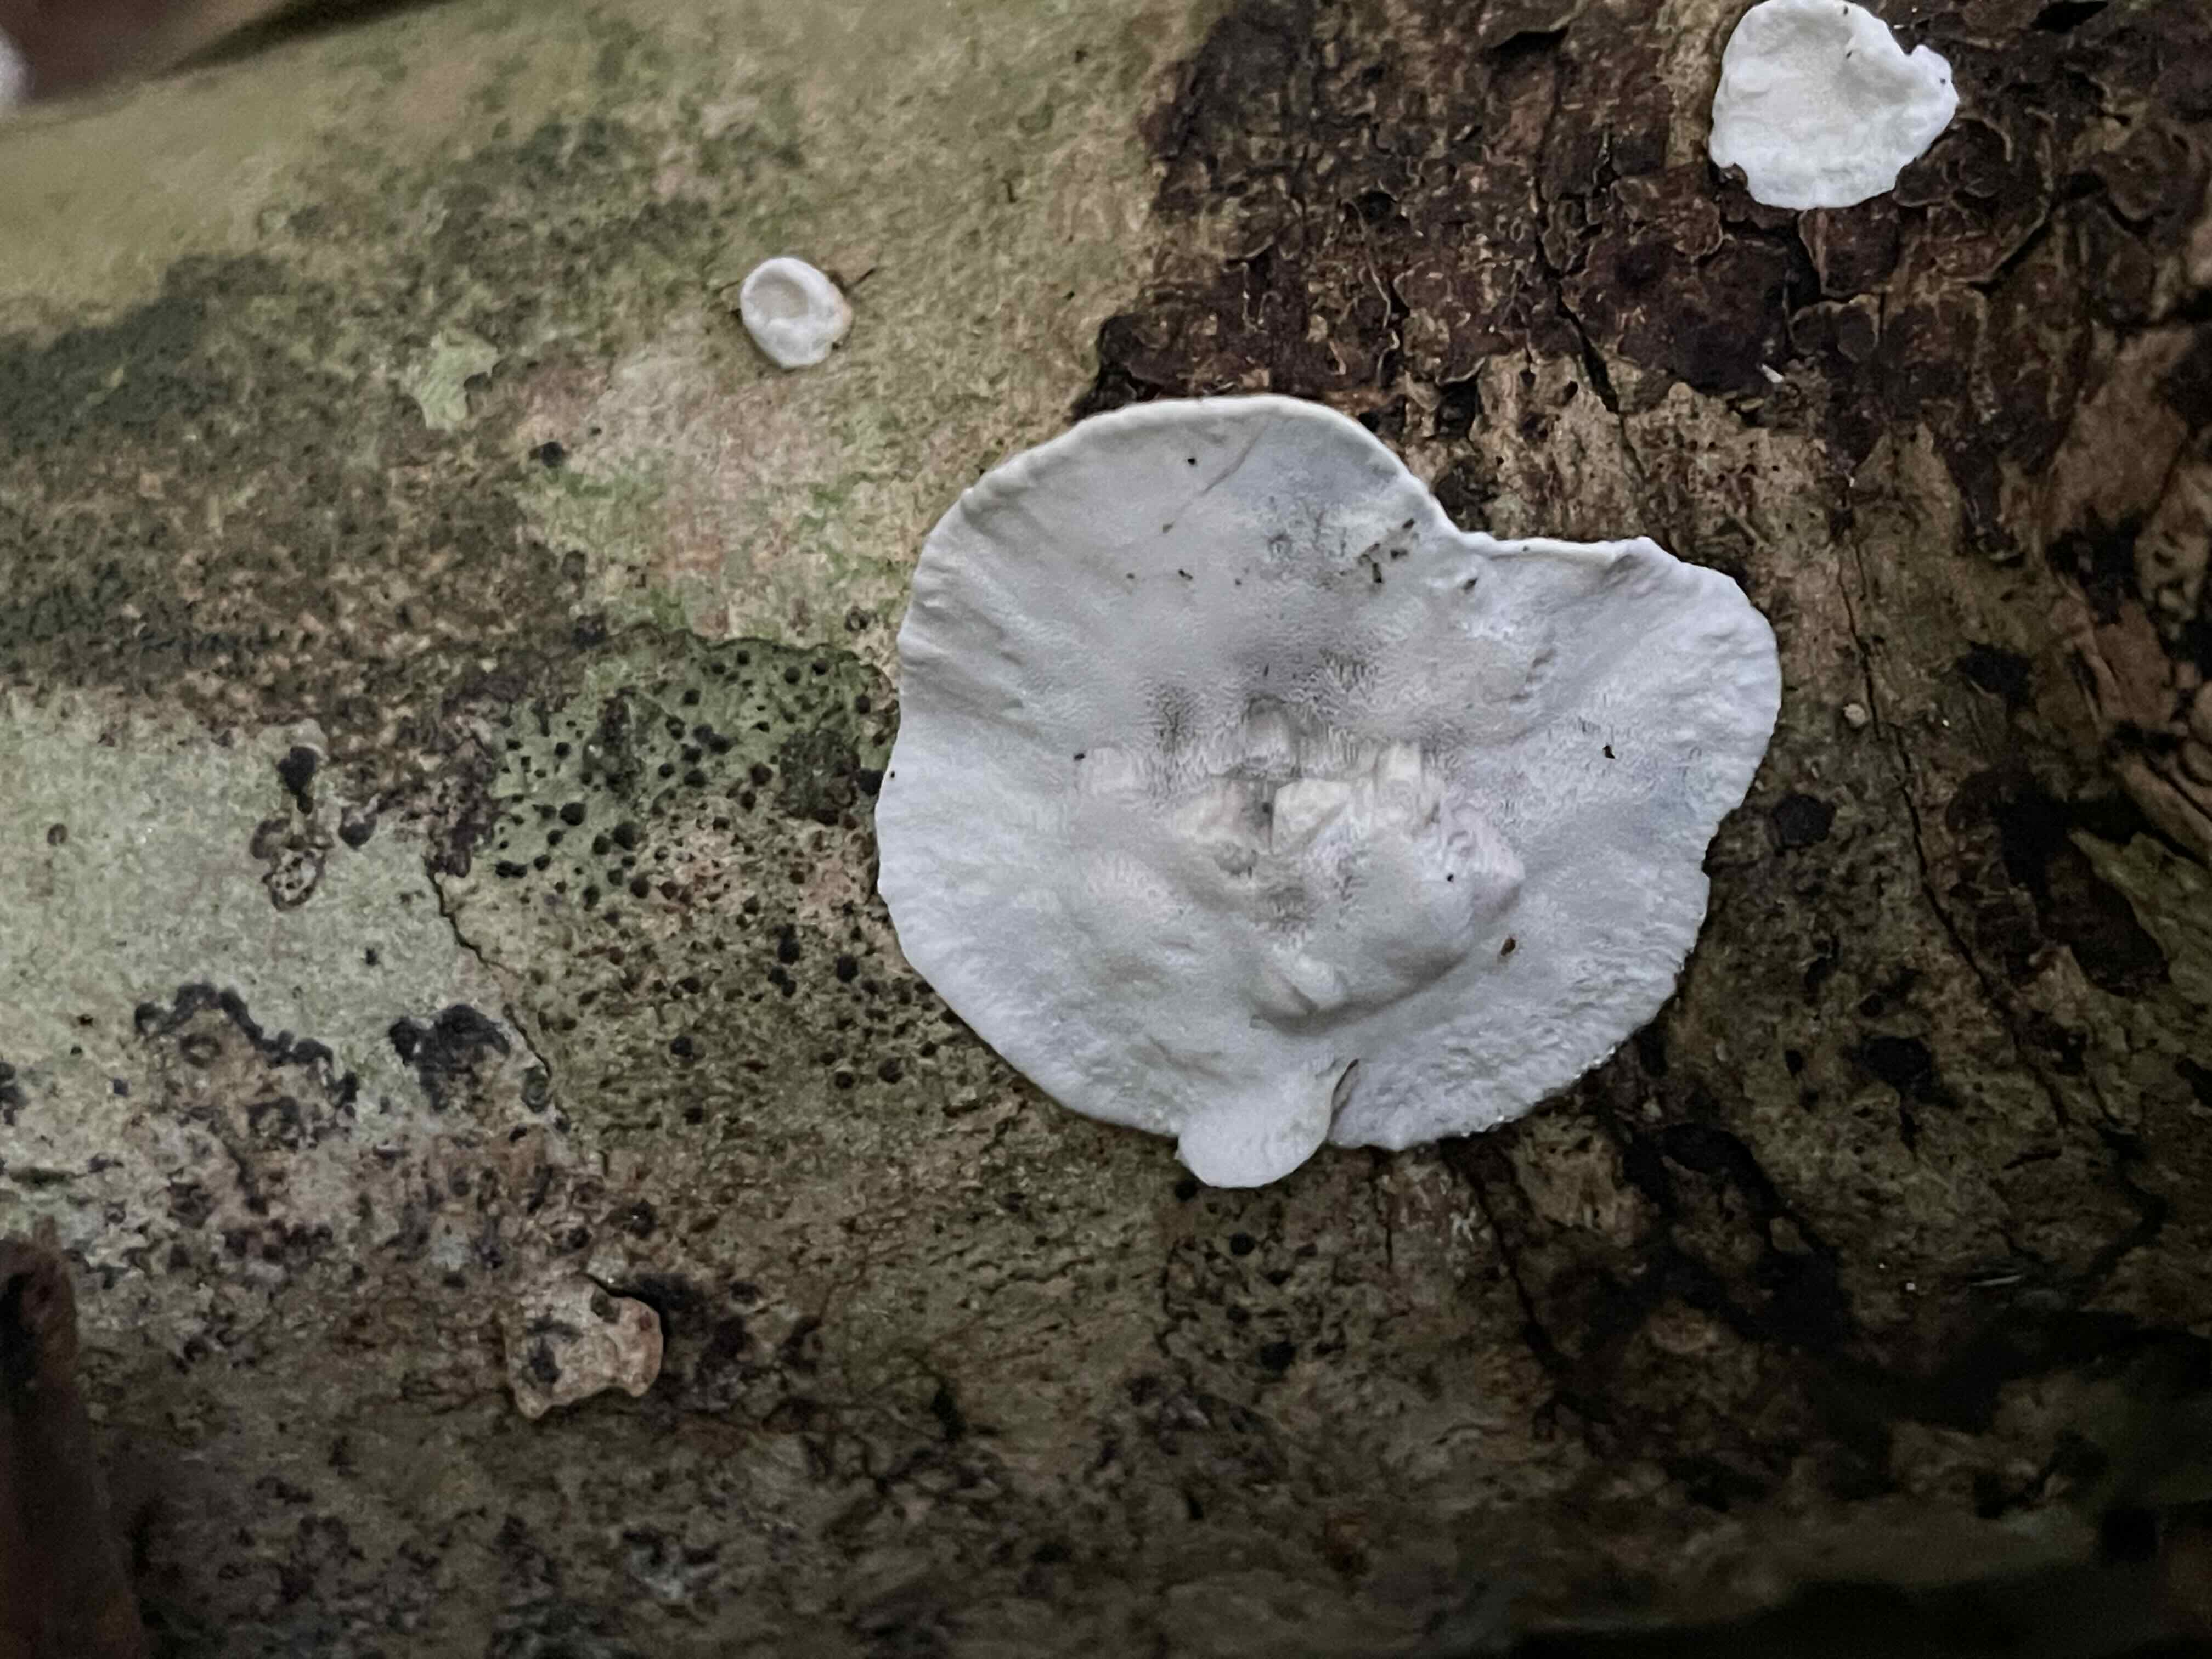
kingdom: Fungi
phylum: Basidiomycota
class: Agaricomycetes
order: Polyporales
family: Incrustoporiaceae
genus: Skeletocutis
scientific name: Skeletocutis nemoralis
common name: stor krystalporesvamp
